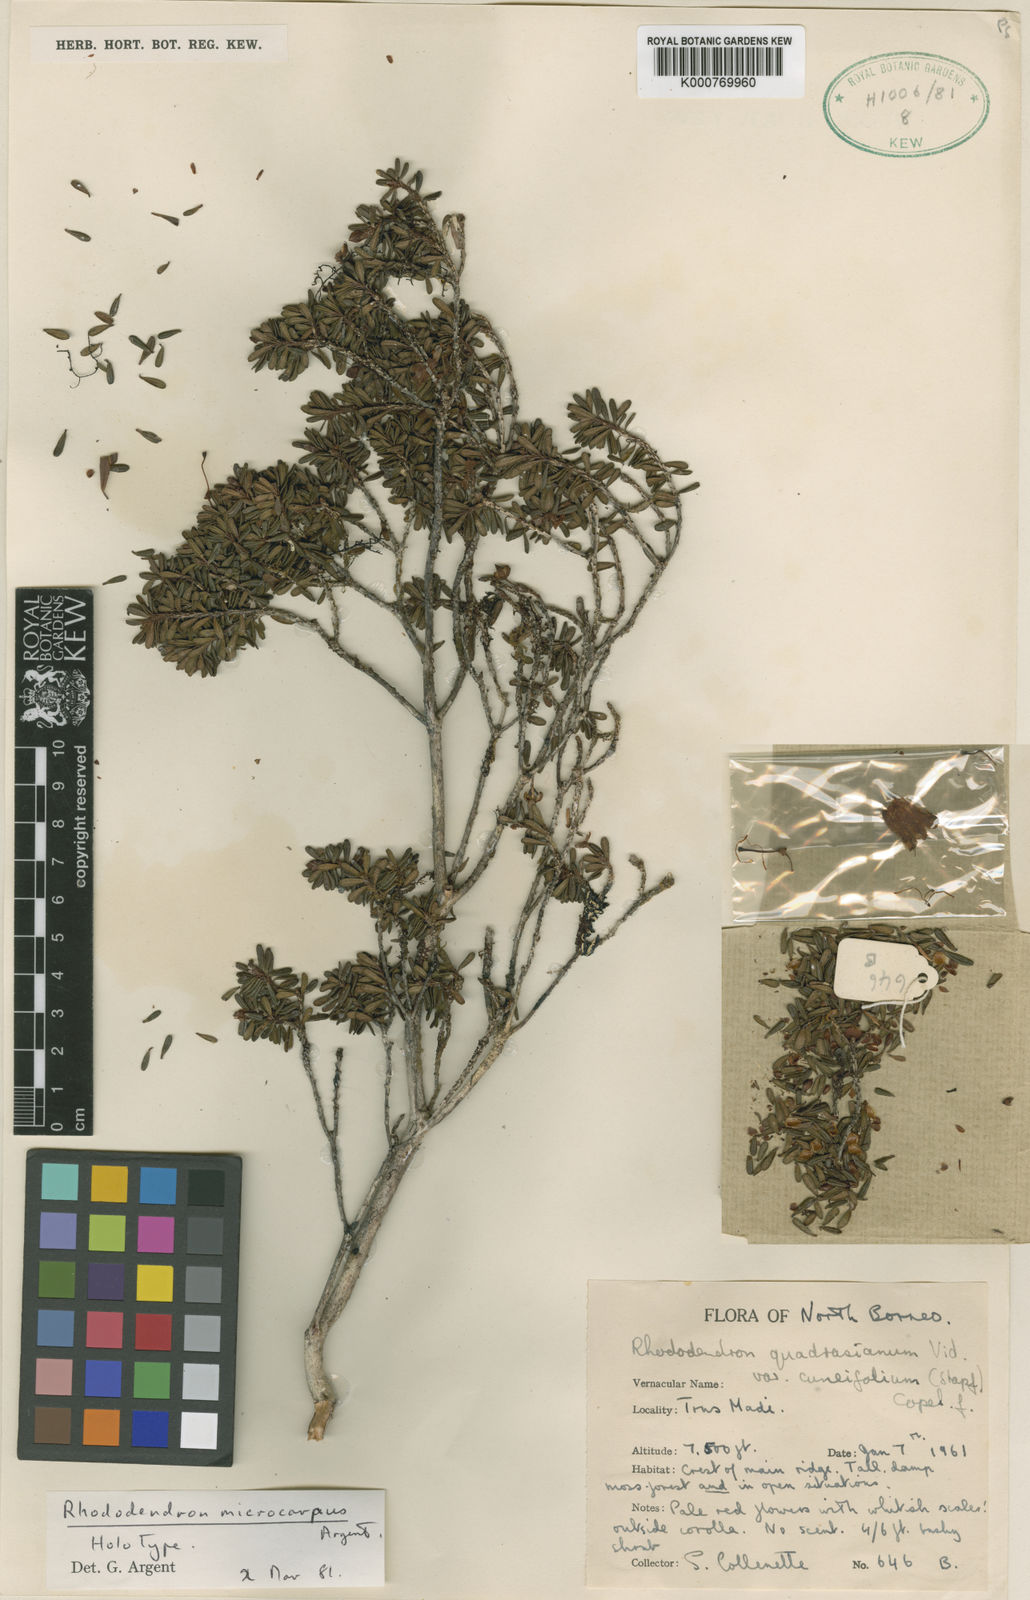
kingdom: Plantae
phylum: Tracheophyta
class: Magnoliopsida
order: Ericales
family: Ericaceae
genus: Rhododendron
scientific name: Rhododendron quadrasianum
